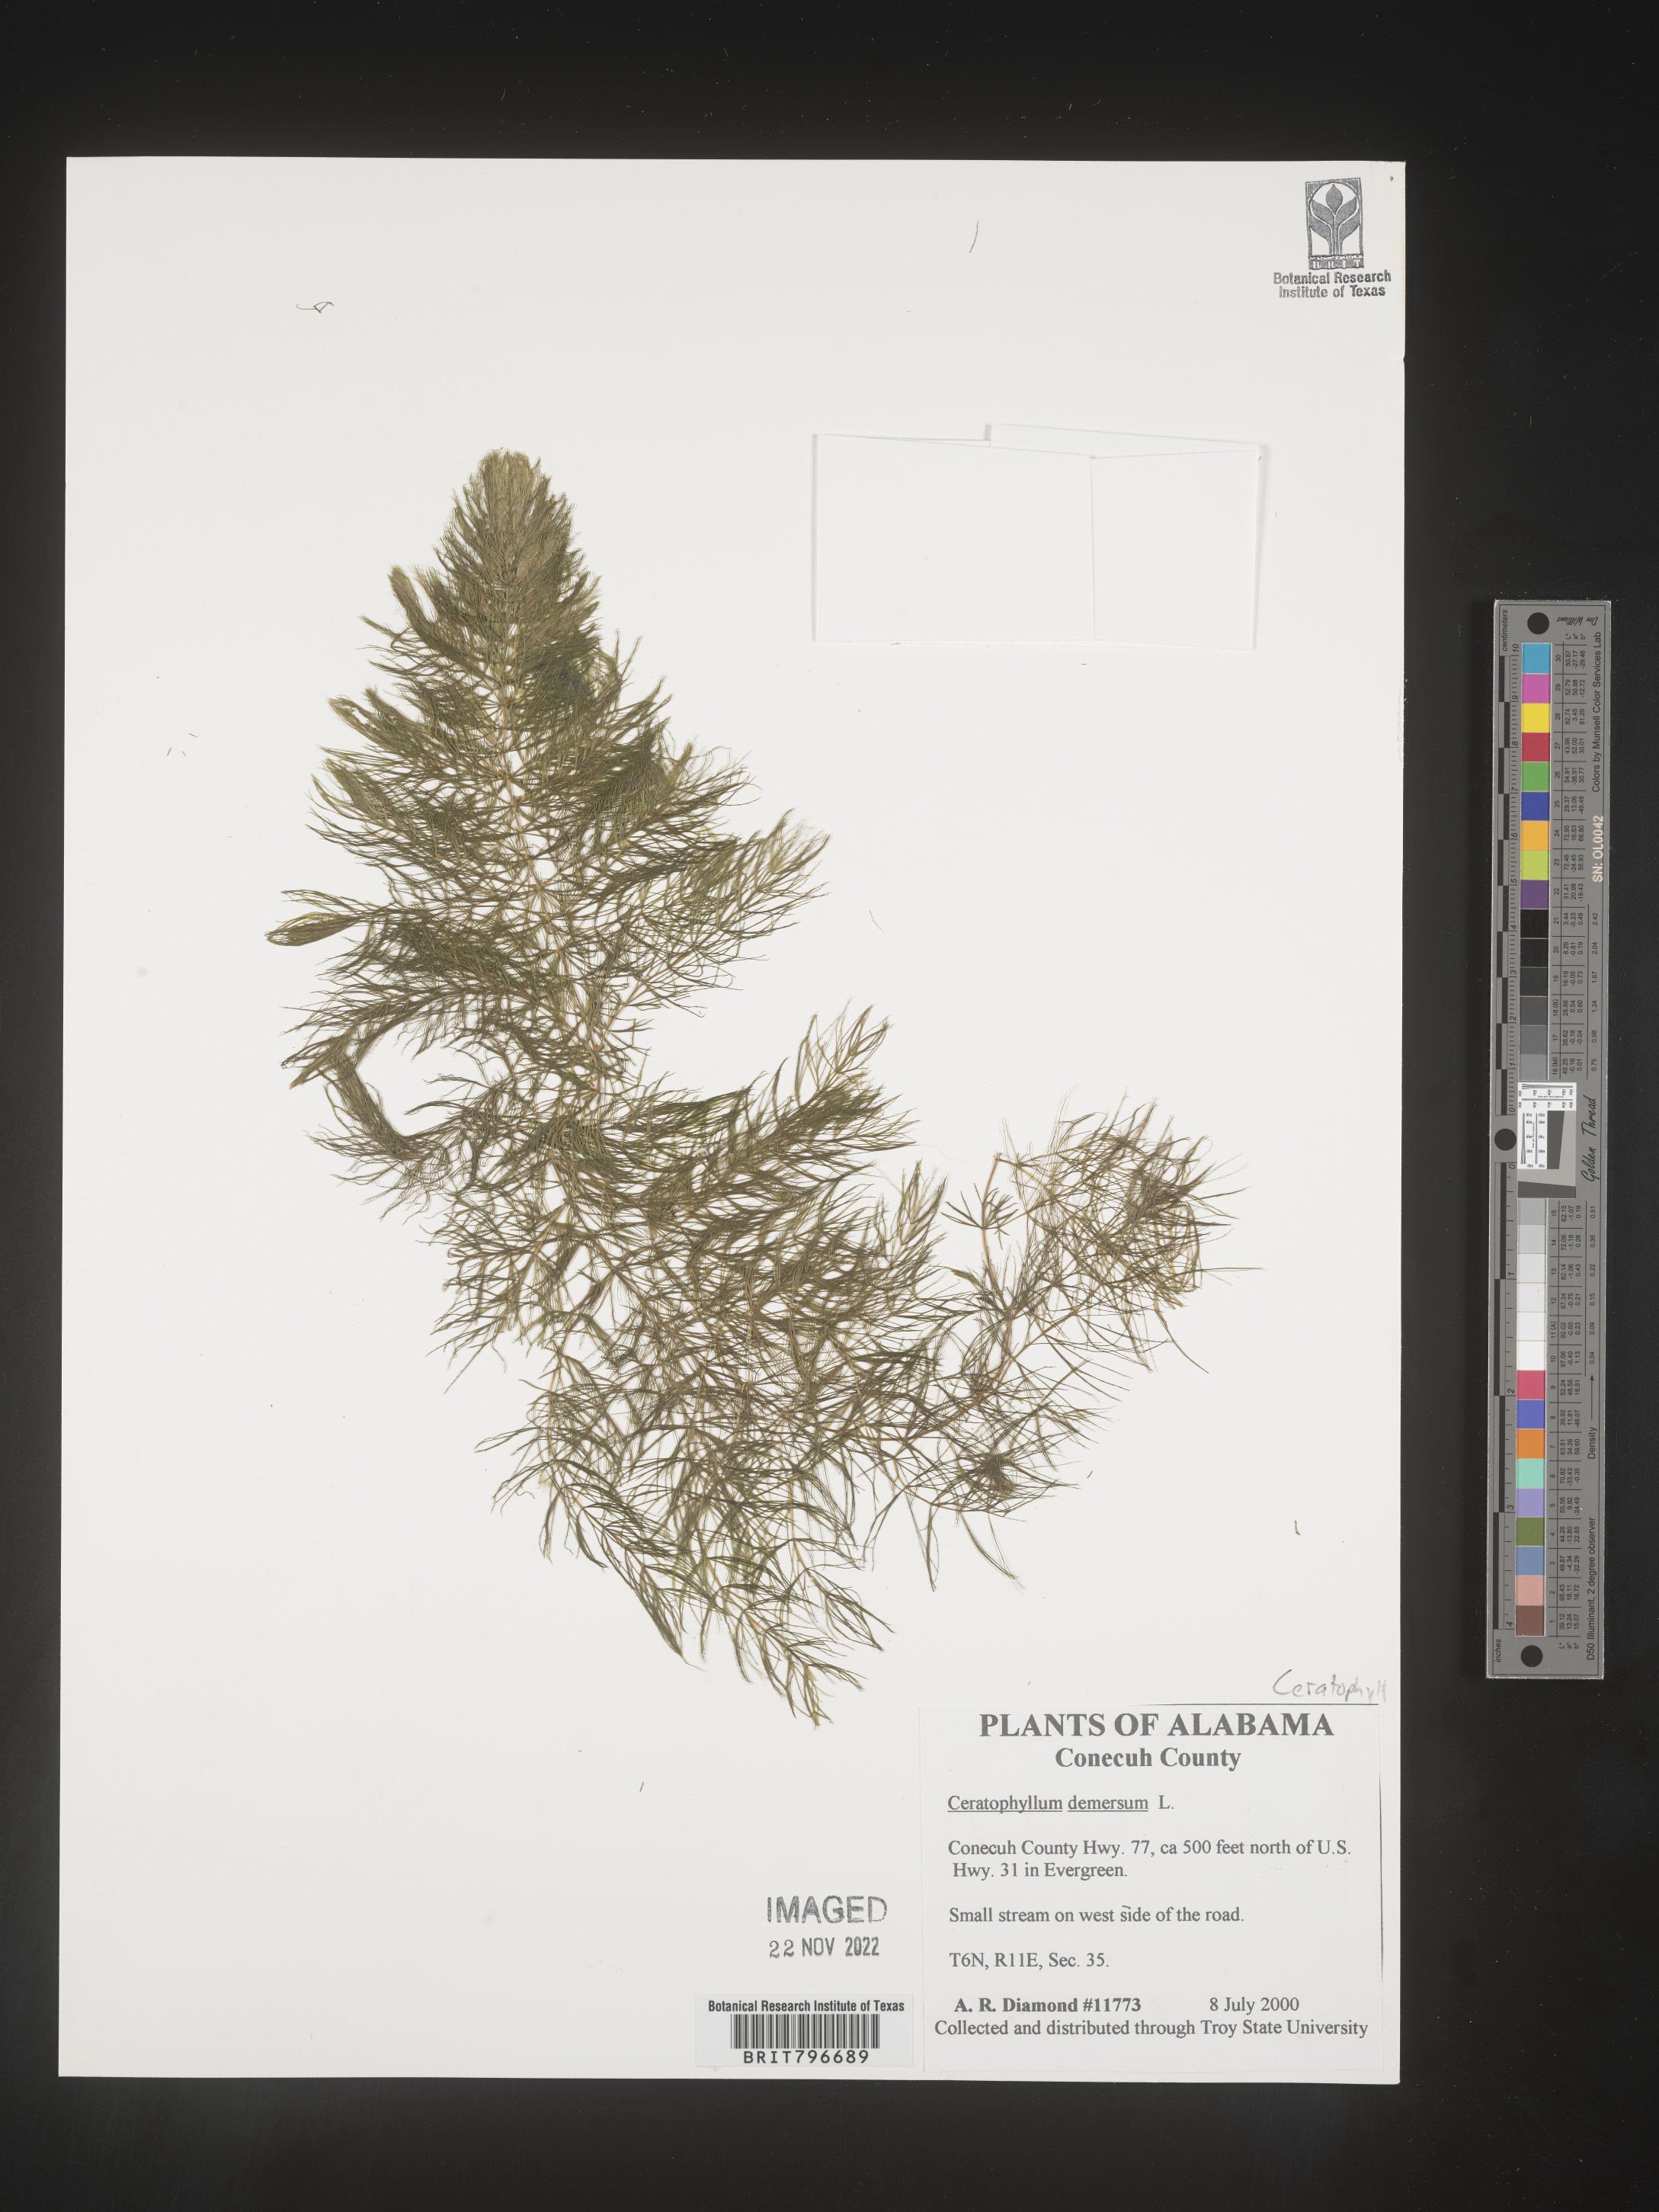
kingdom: Plantae
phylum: Tracheophyta
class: Magnoliopsida
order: Ceratophyllales
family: Ceratophyllaceae
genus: Ceratophyllum
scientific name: Ceratophyllum demersum
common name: Rigid hornwort
